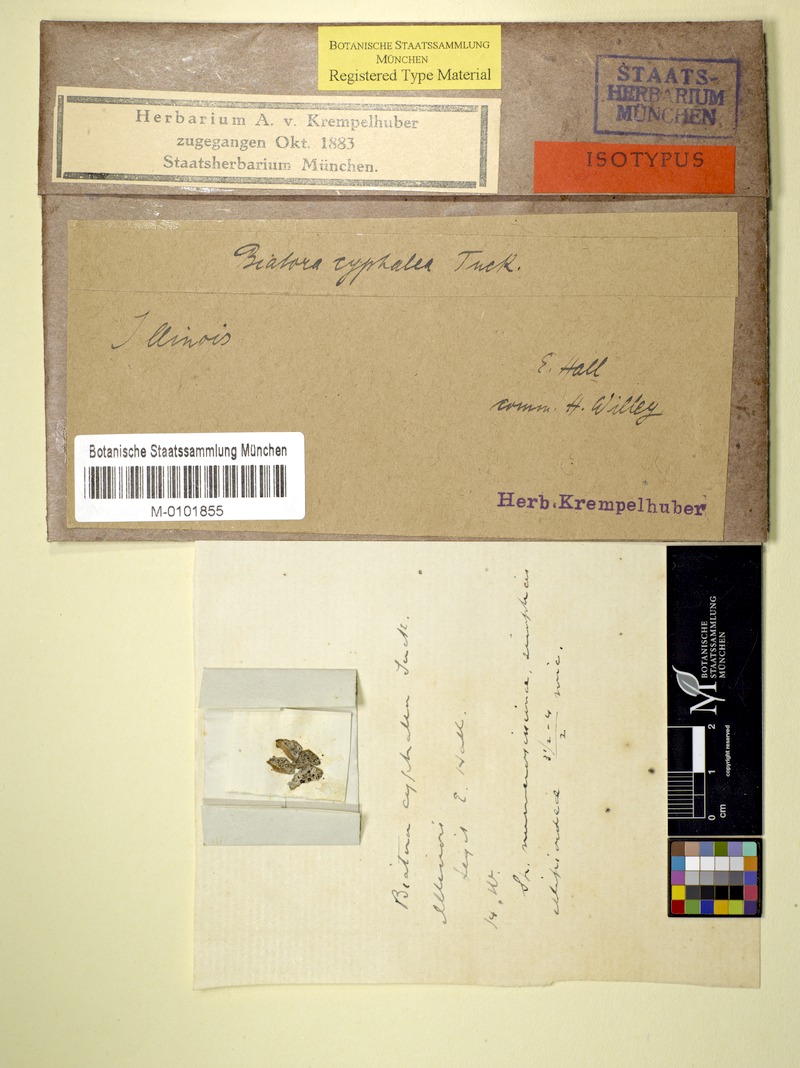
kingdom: Fungi
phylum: Ascomycota
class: Lecanoromycetes
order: Lecanorales
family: Strangosporaceae
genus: Strangospora
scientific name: Strangospora cyphalea
